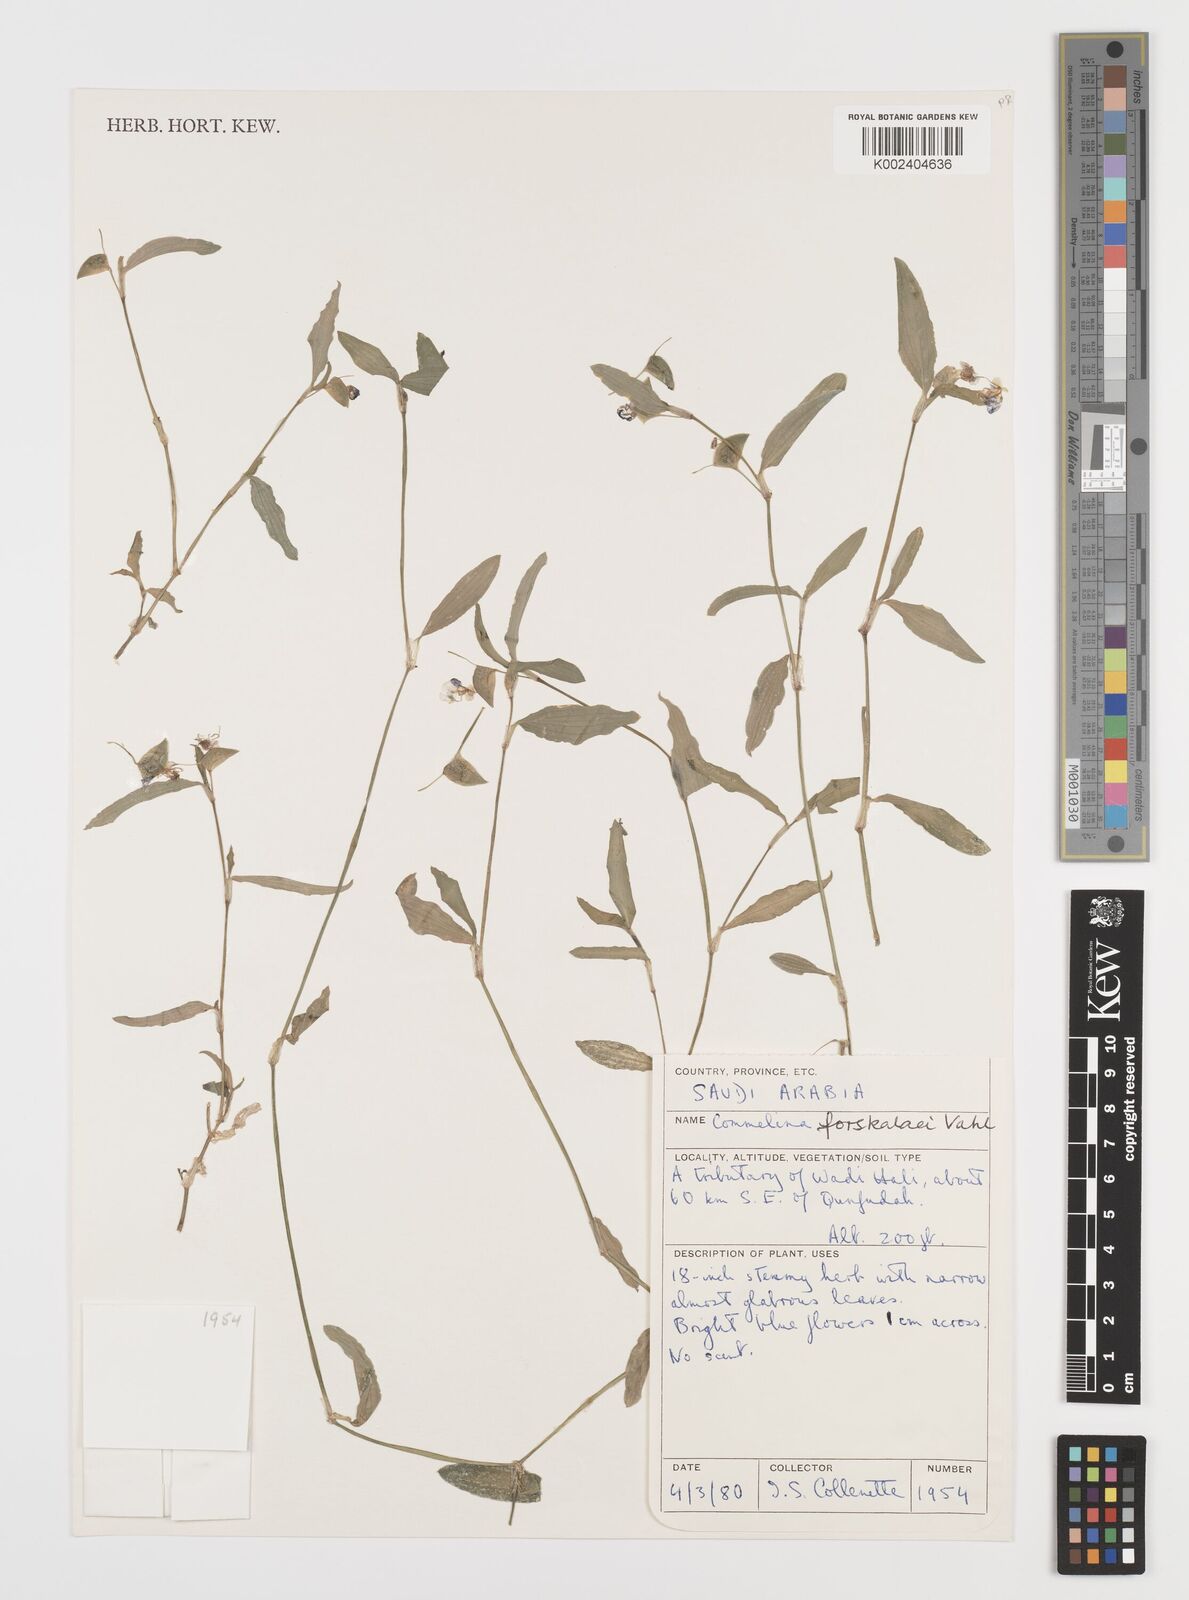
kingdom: Plantae
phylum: Tracheophyta
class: Liliopsida
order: Commelinales
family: Commelinaceae
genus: Commelina
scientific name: Commelina forskaolii
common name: Rat's ear
